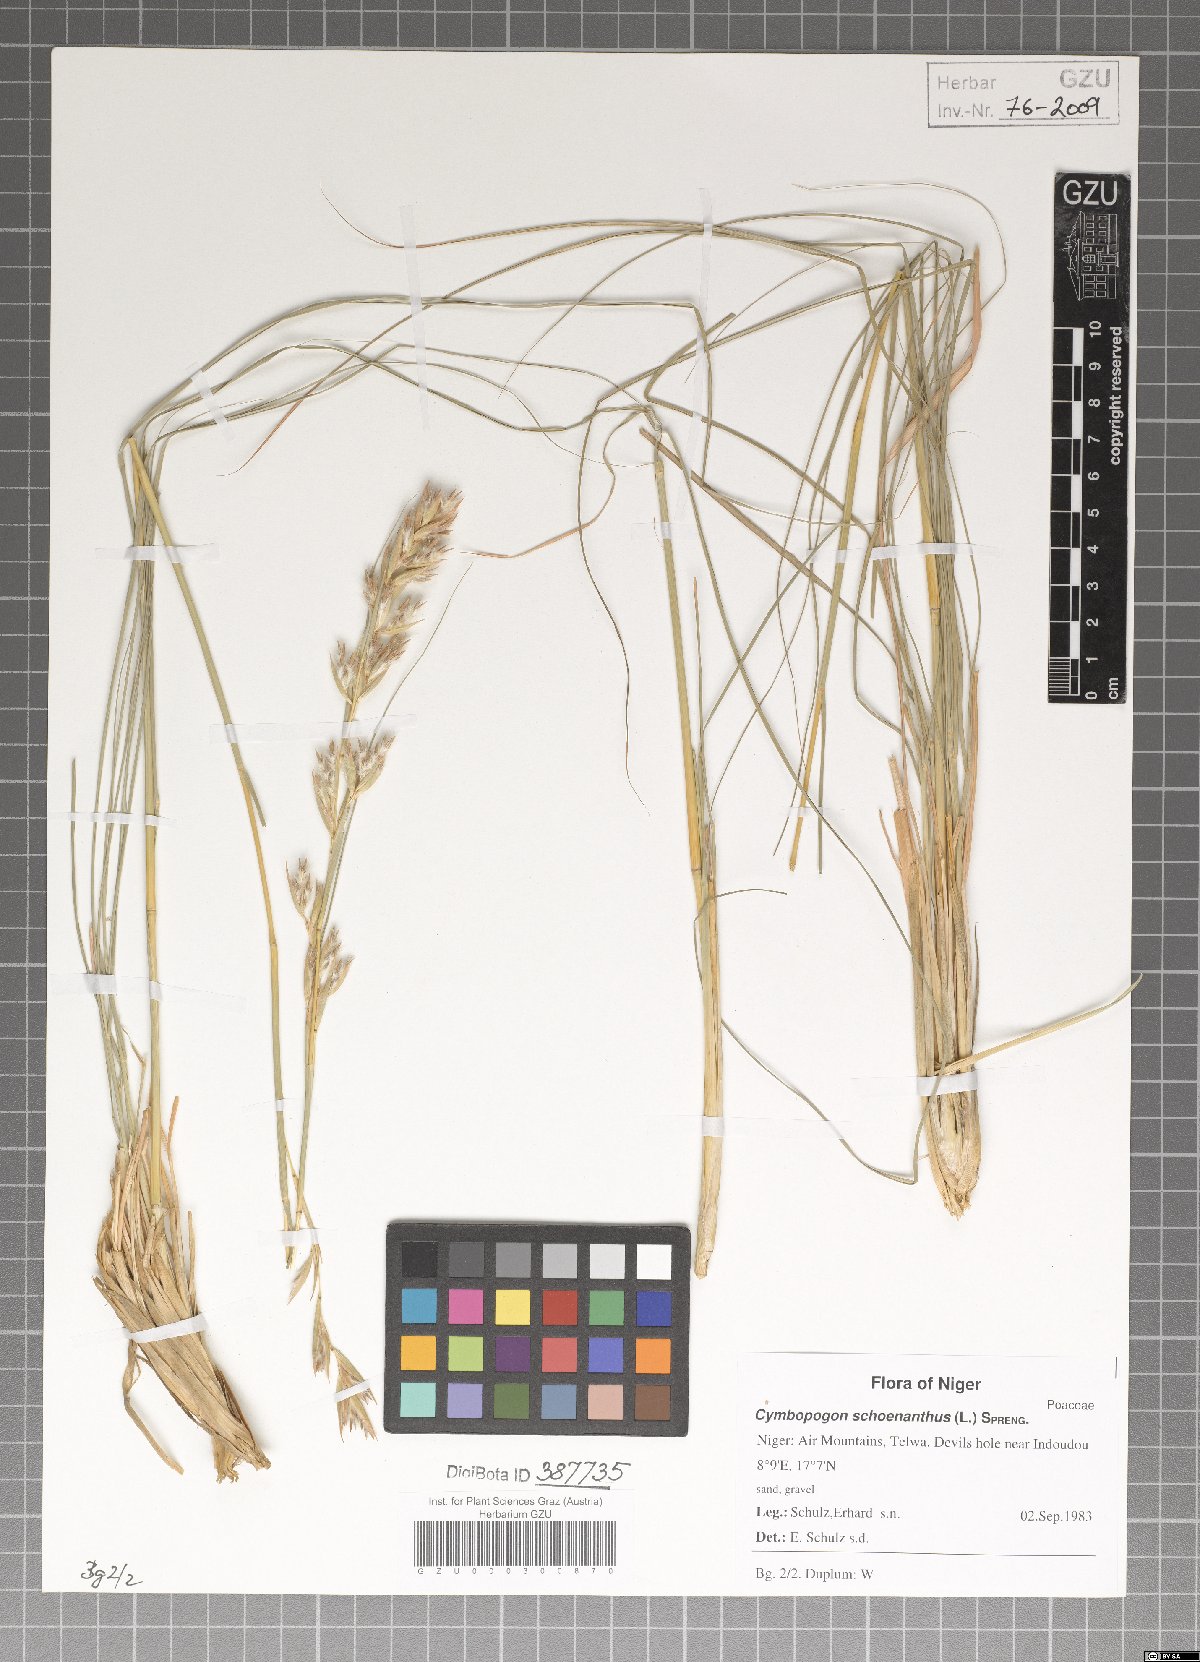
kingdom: Plantae
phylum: Tracheophyta
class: Liliopsida
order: Poales
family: Poaceae
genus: Cymbopogon
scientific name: Cymbopogon schoenanthus
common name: Geranium grass
